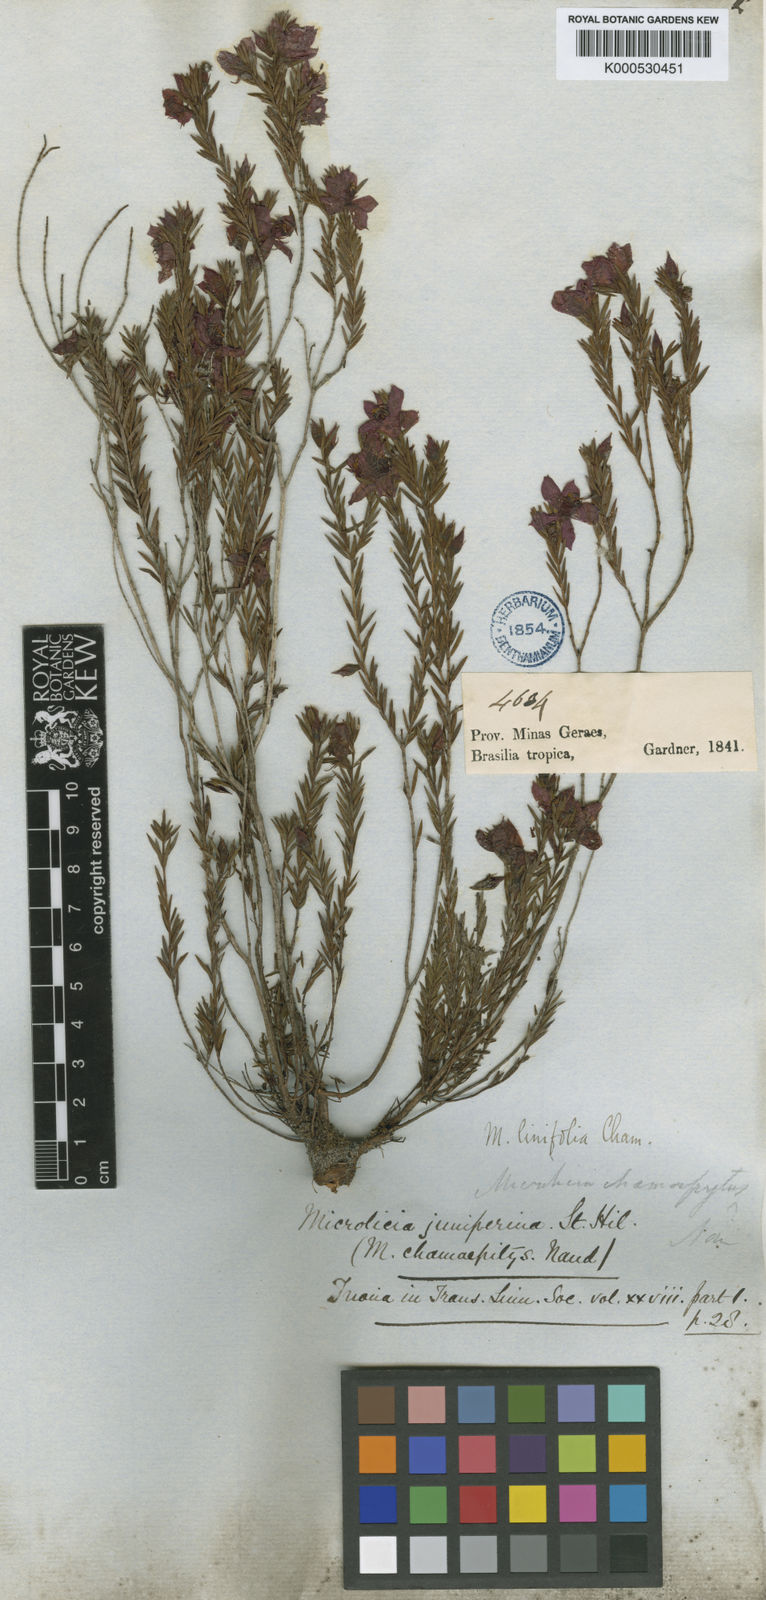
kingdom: Plantae
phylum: Tracheophyta
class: Magnoliopsida
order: Myrtales
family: Melastomataceae
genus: Microlicia
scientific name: Microlicia linifolia
